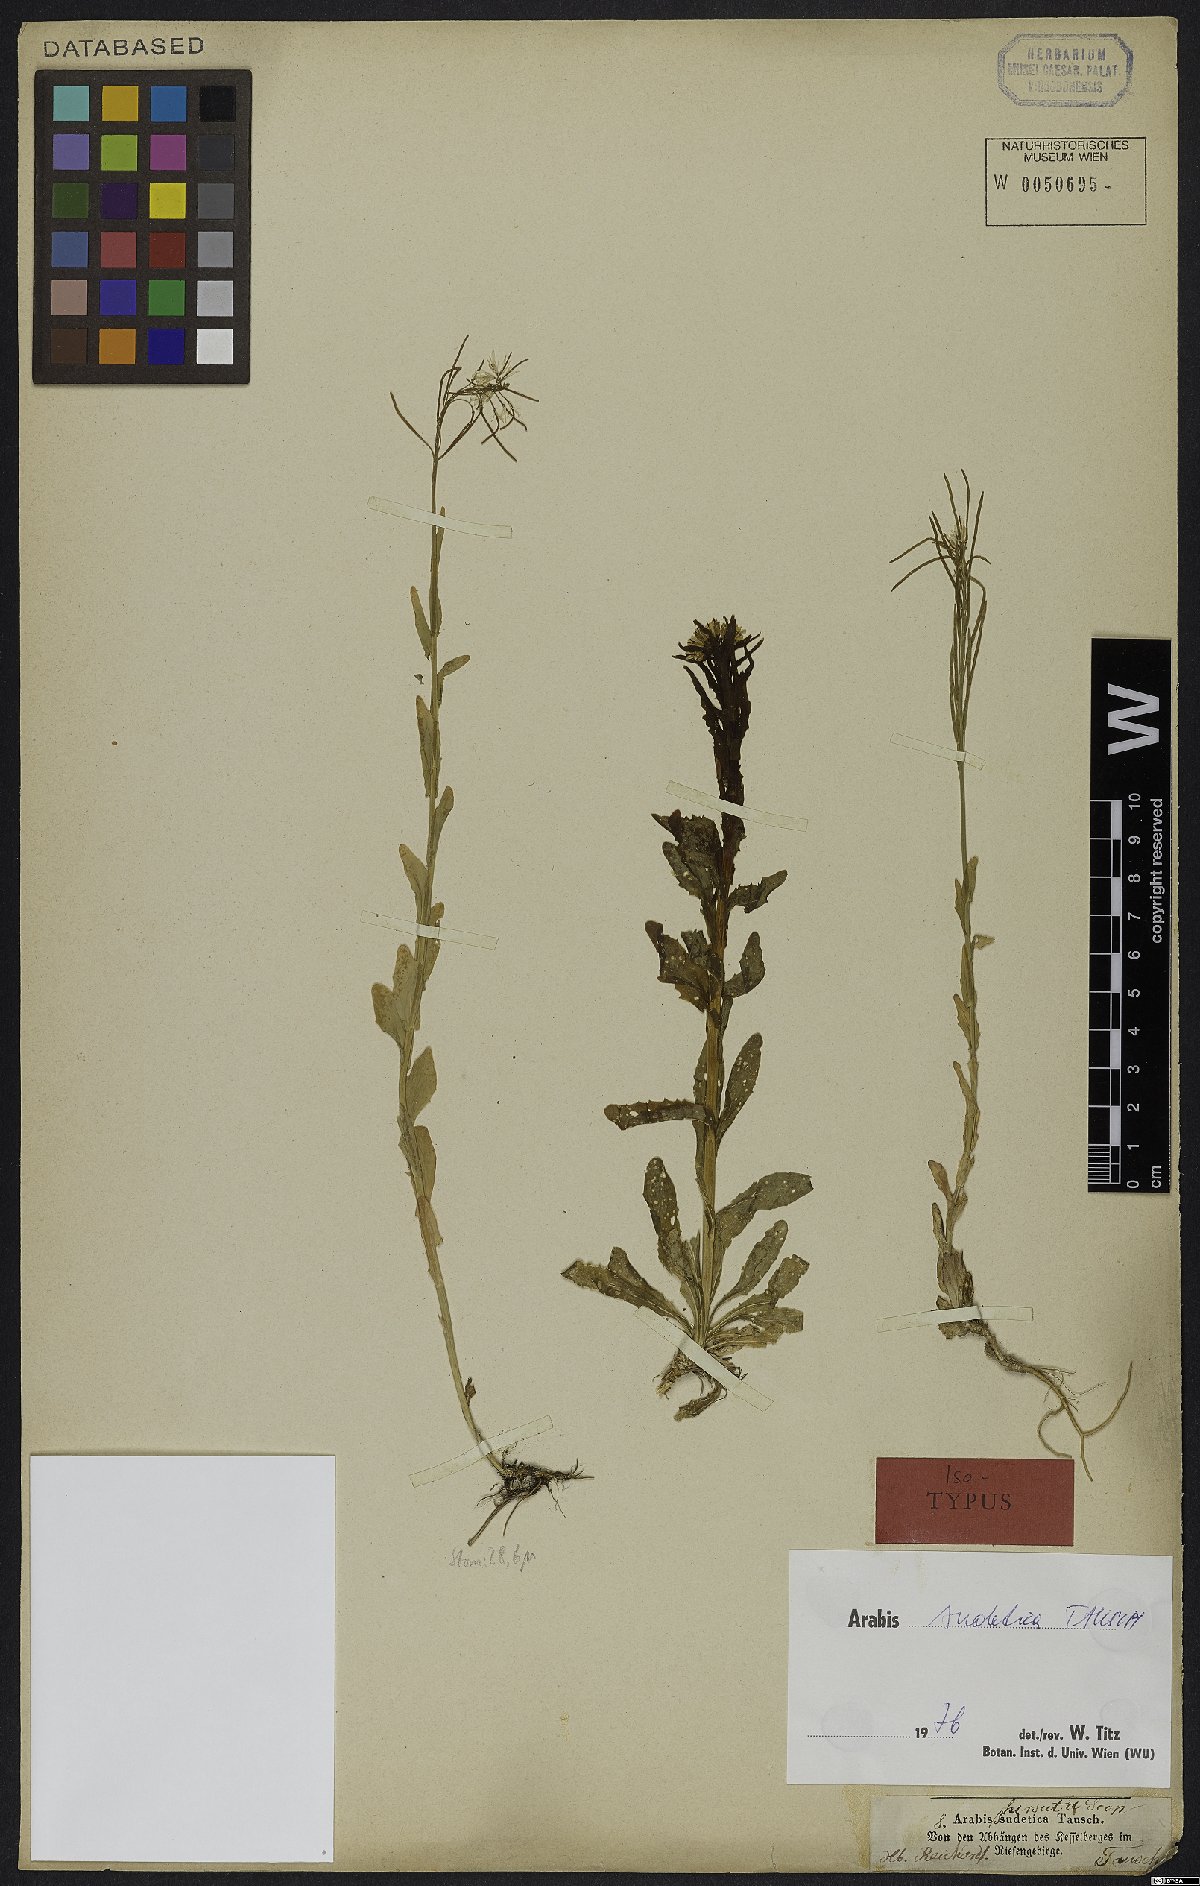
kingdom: Plantae
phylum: Tracheophyta
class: Magnoliopsida
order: Brassicales
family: Brassicaceae
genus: Arabis
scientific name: Arabis sudetica
